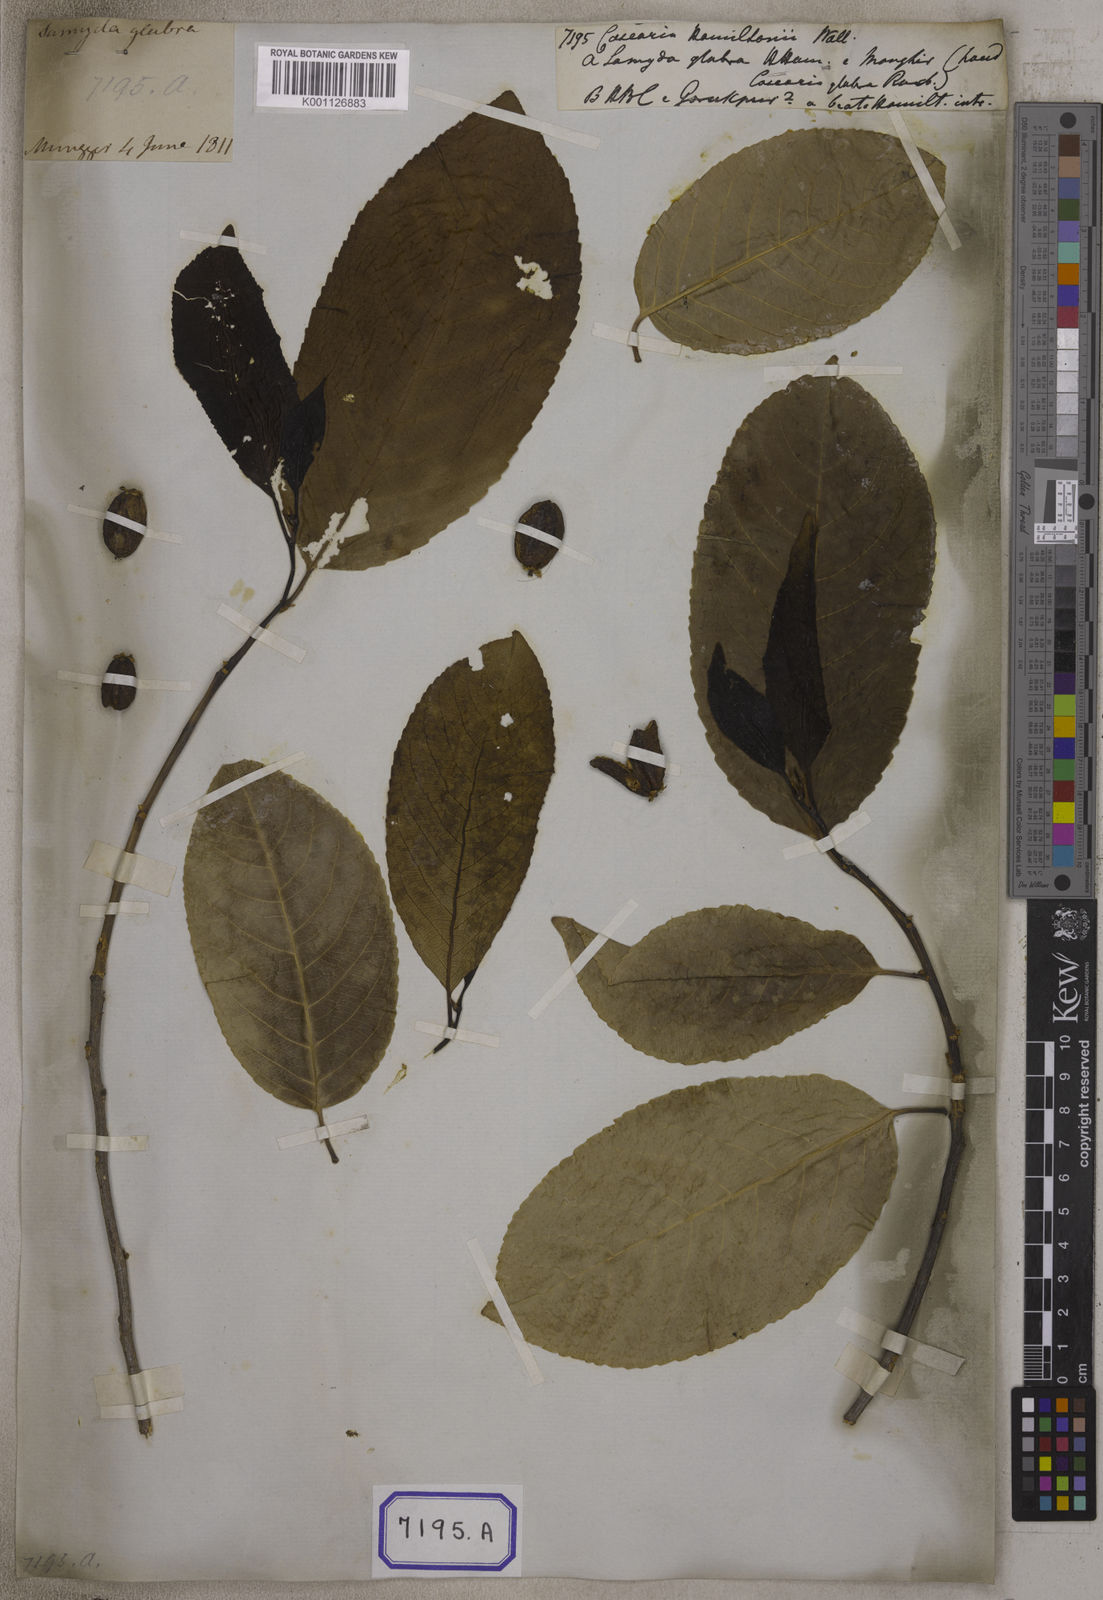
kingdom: Plantae
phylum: Tracheophyta
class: Magnoliopsida
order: Malpighiales
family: Salicaceae
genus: Casearia
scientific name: Casearia graveolens
